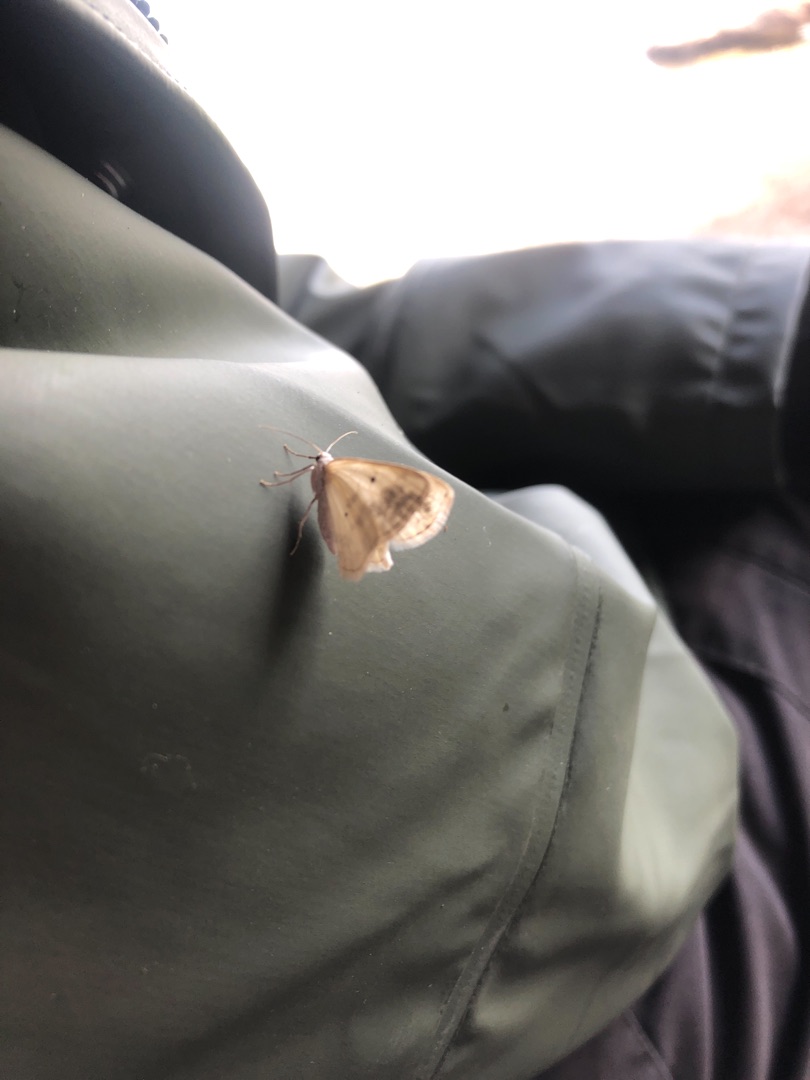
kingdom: Animalia
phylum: Arthropoda
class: Insecta
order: Lepidoptera
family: Geometridae
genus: Lomographa
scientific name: Lomographa temerata
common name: Tobåndet atlaskmåler
